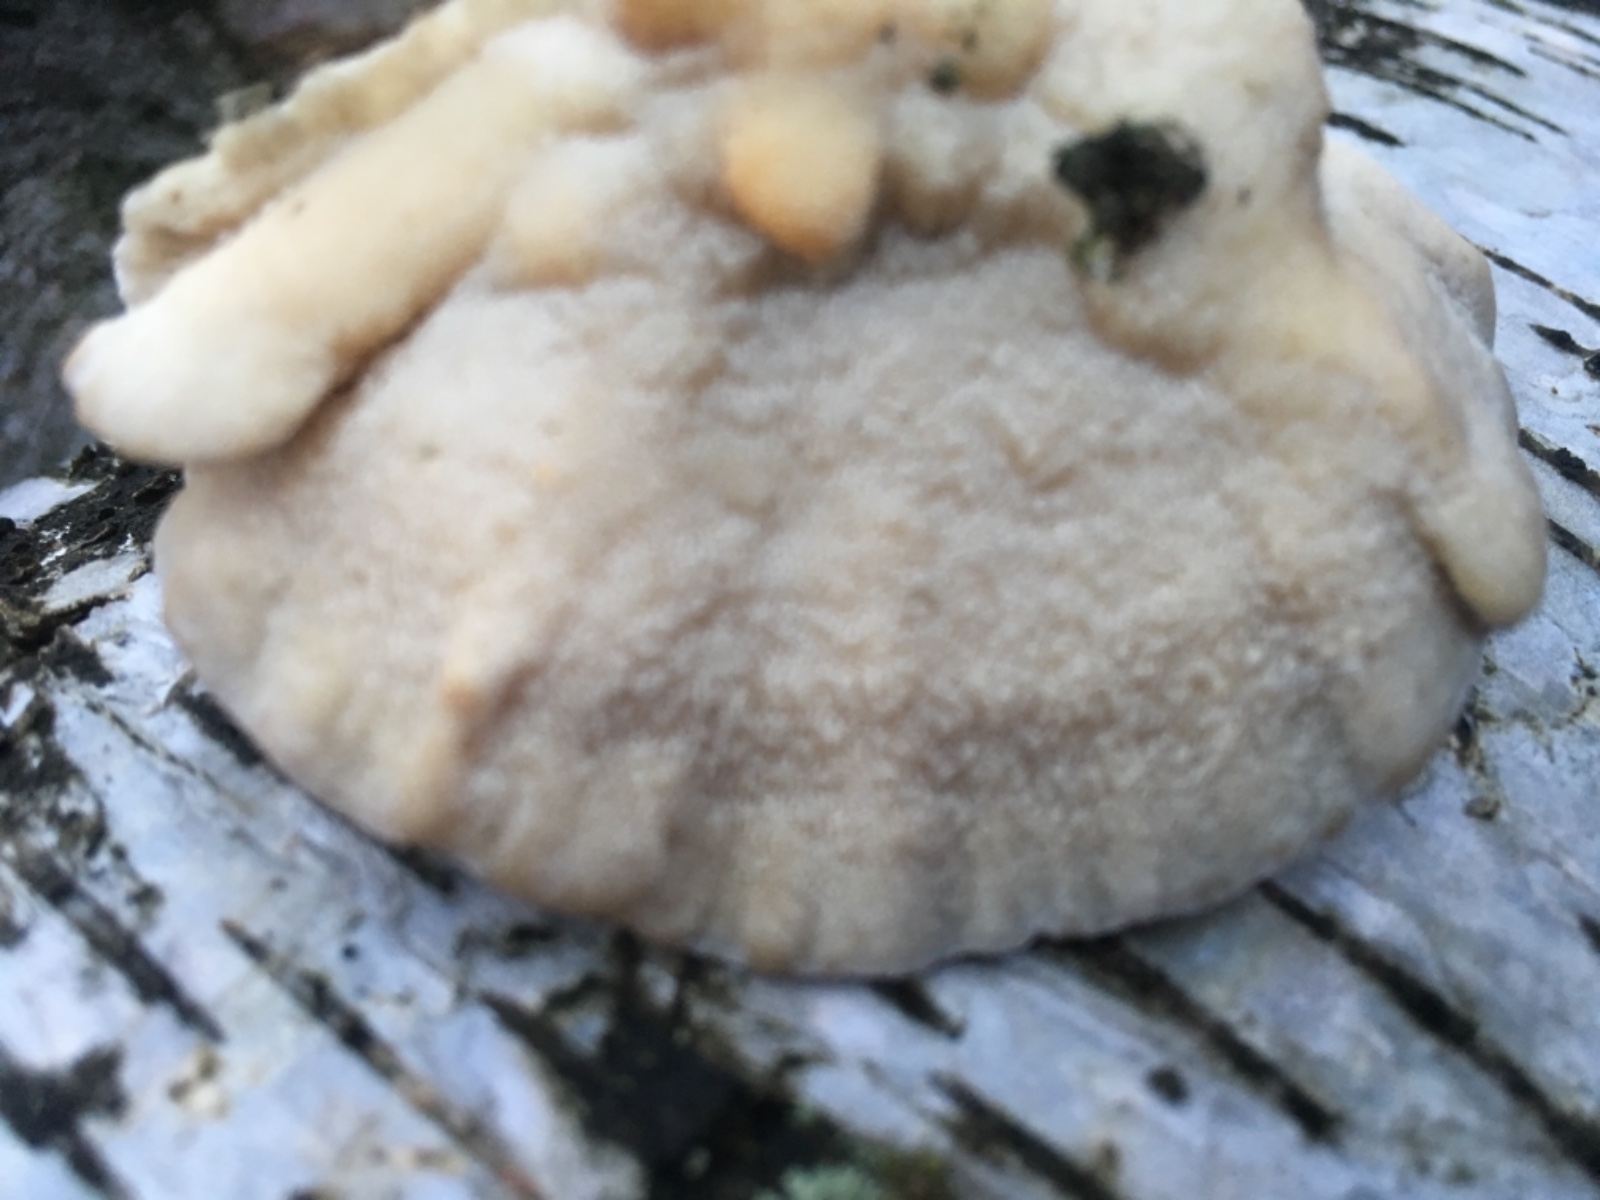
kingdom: Fungi
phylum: Basidiomycota
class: Agaricomycetes
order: Polyporales
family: Polyporaceae
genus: Trametes
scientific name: Trametes ochracea
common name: bæltet læderporesvamp
